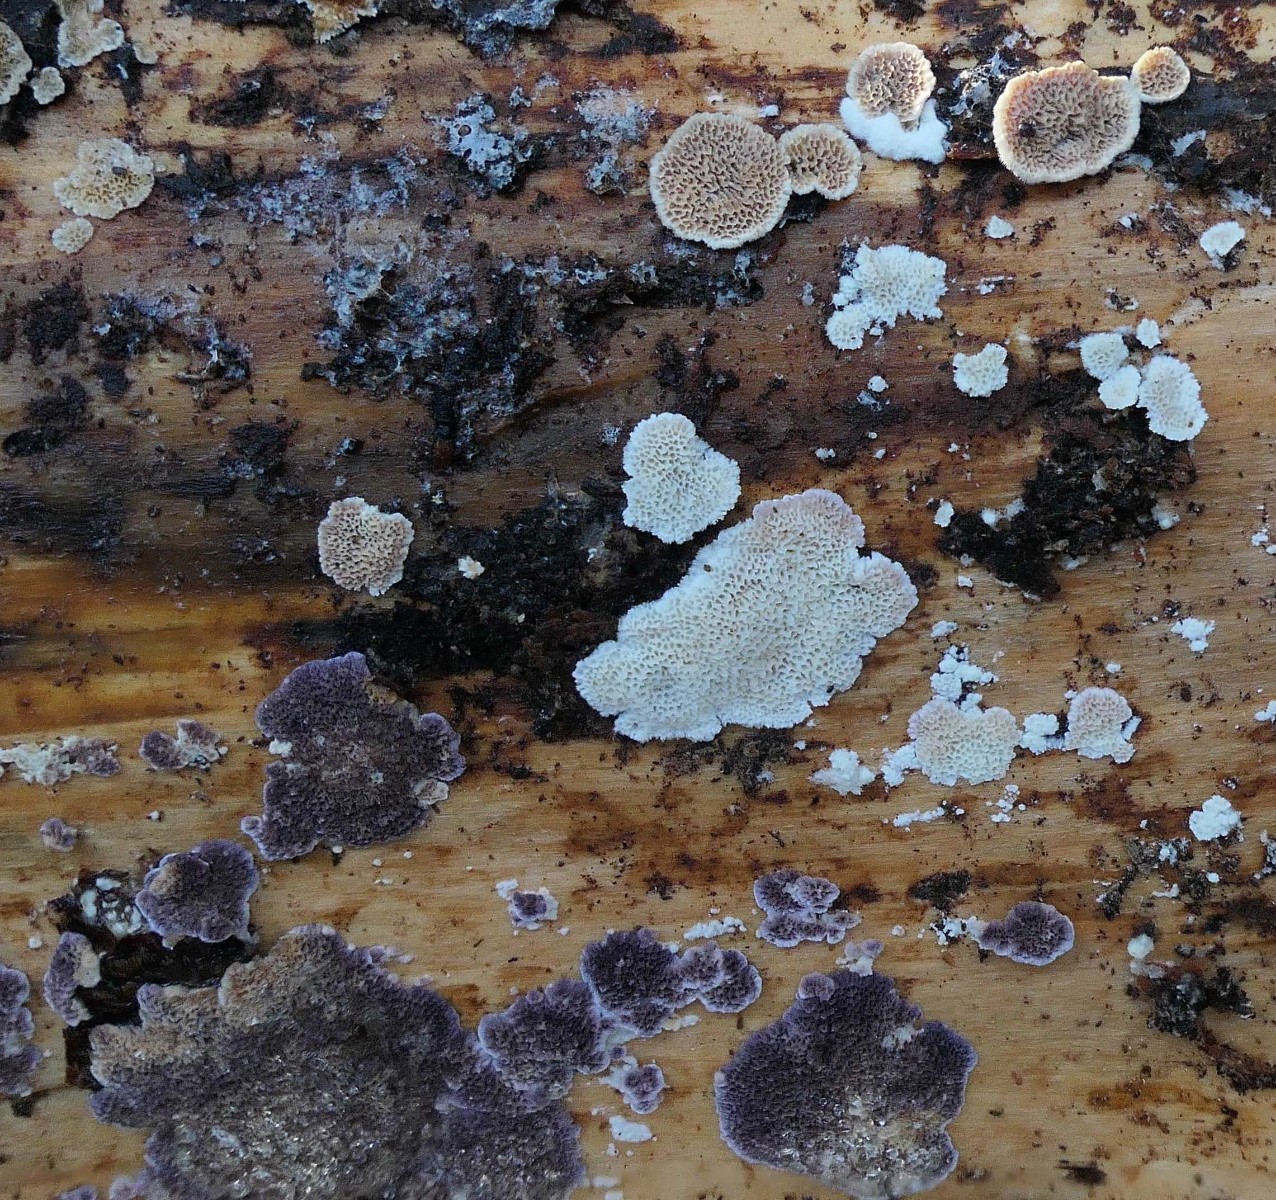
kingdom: Fungi
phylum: Basidiomycota
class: Agaricomycetes
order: Polyporales
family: Incrustoporiaceae
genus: Skeletocutis
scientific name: Skeletocutis carneogrisea
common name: rødgrå krystalporesvamp
